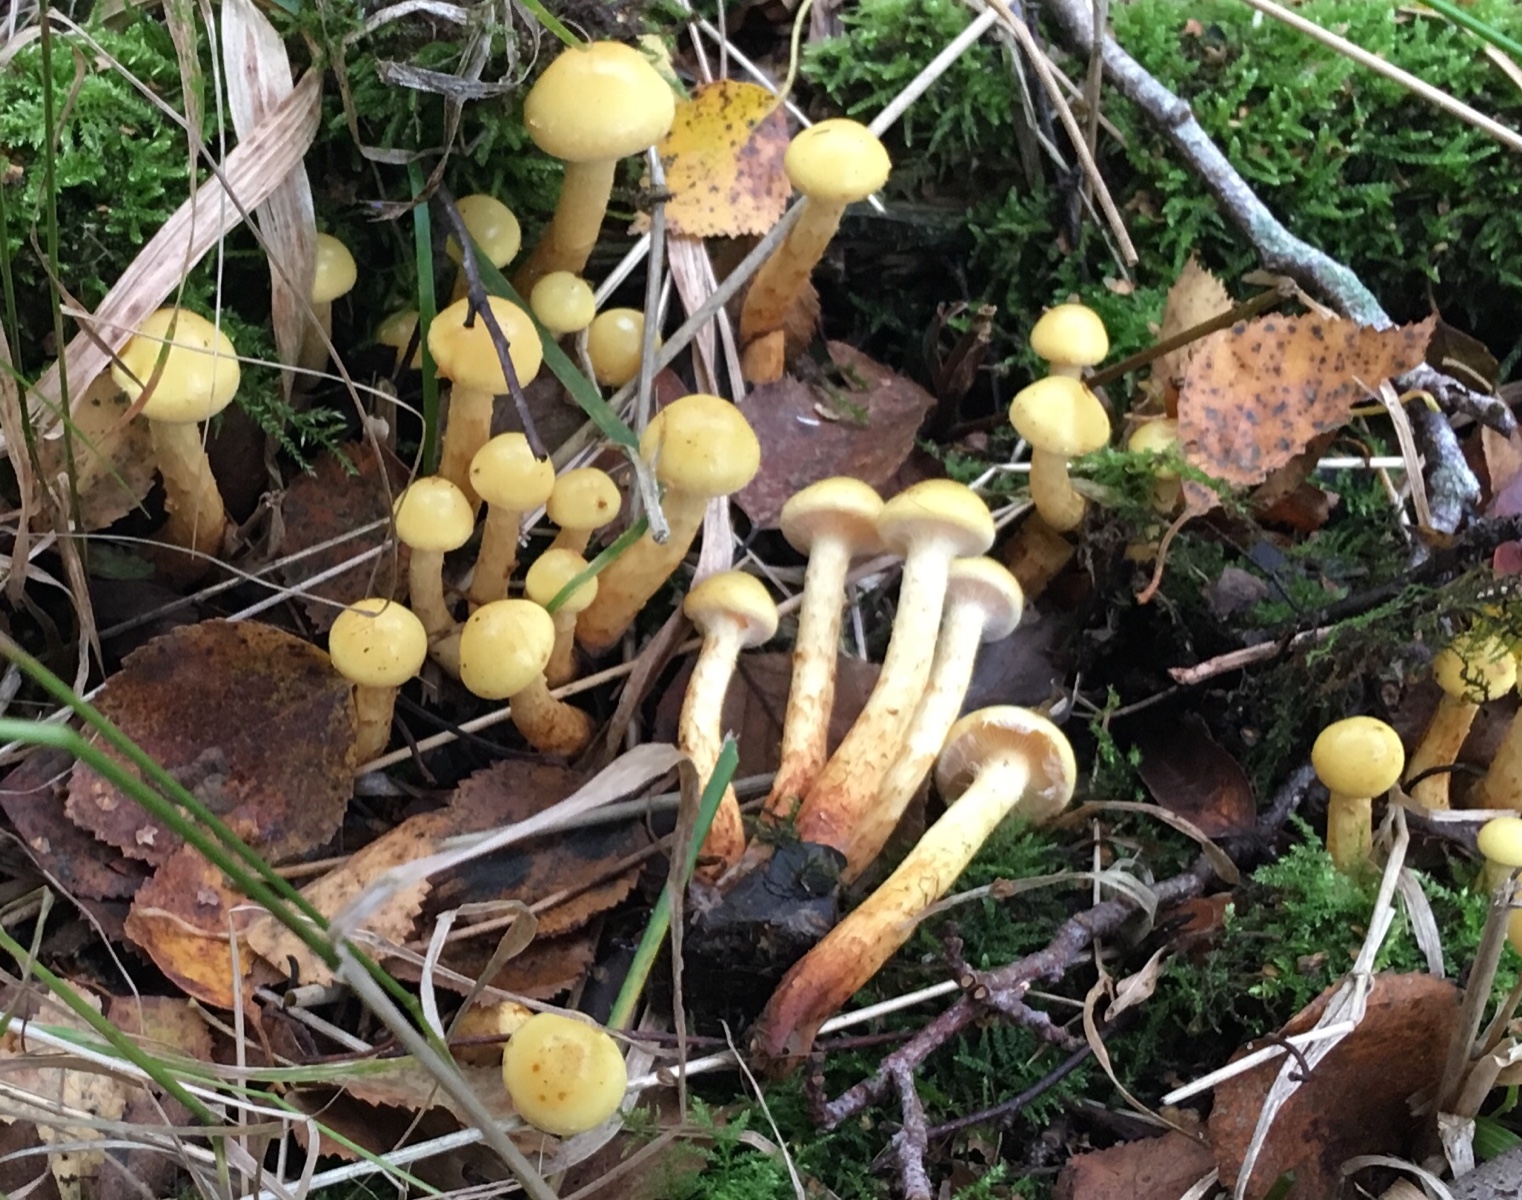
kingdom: Fungi
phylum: Basidiomycota
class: Agaricomycetes
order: Agaricales
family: Hymenogastraceae
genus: Flammula
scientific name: Flammula alnicola
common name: elle-skælhat
